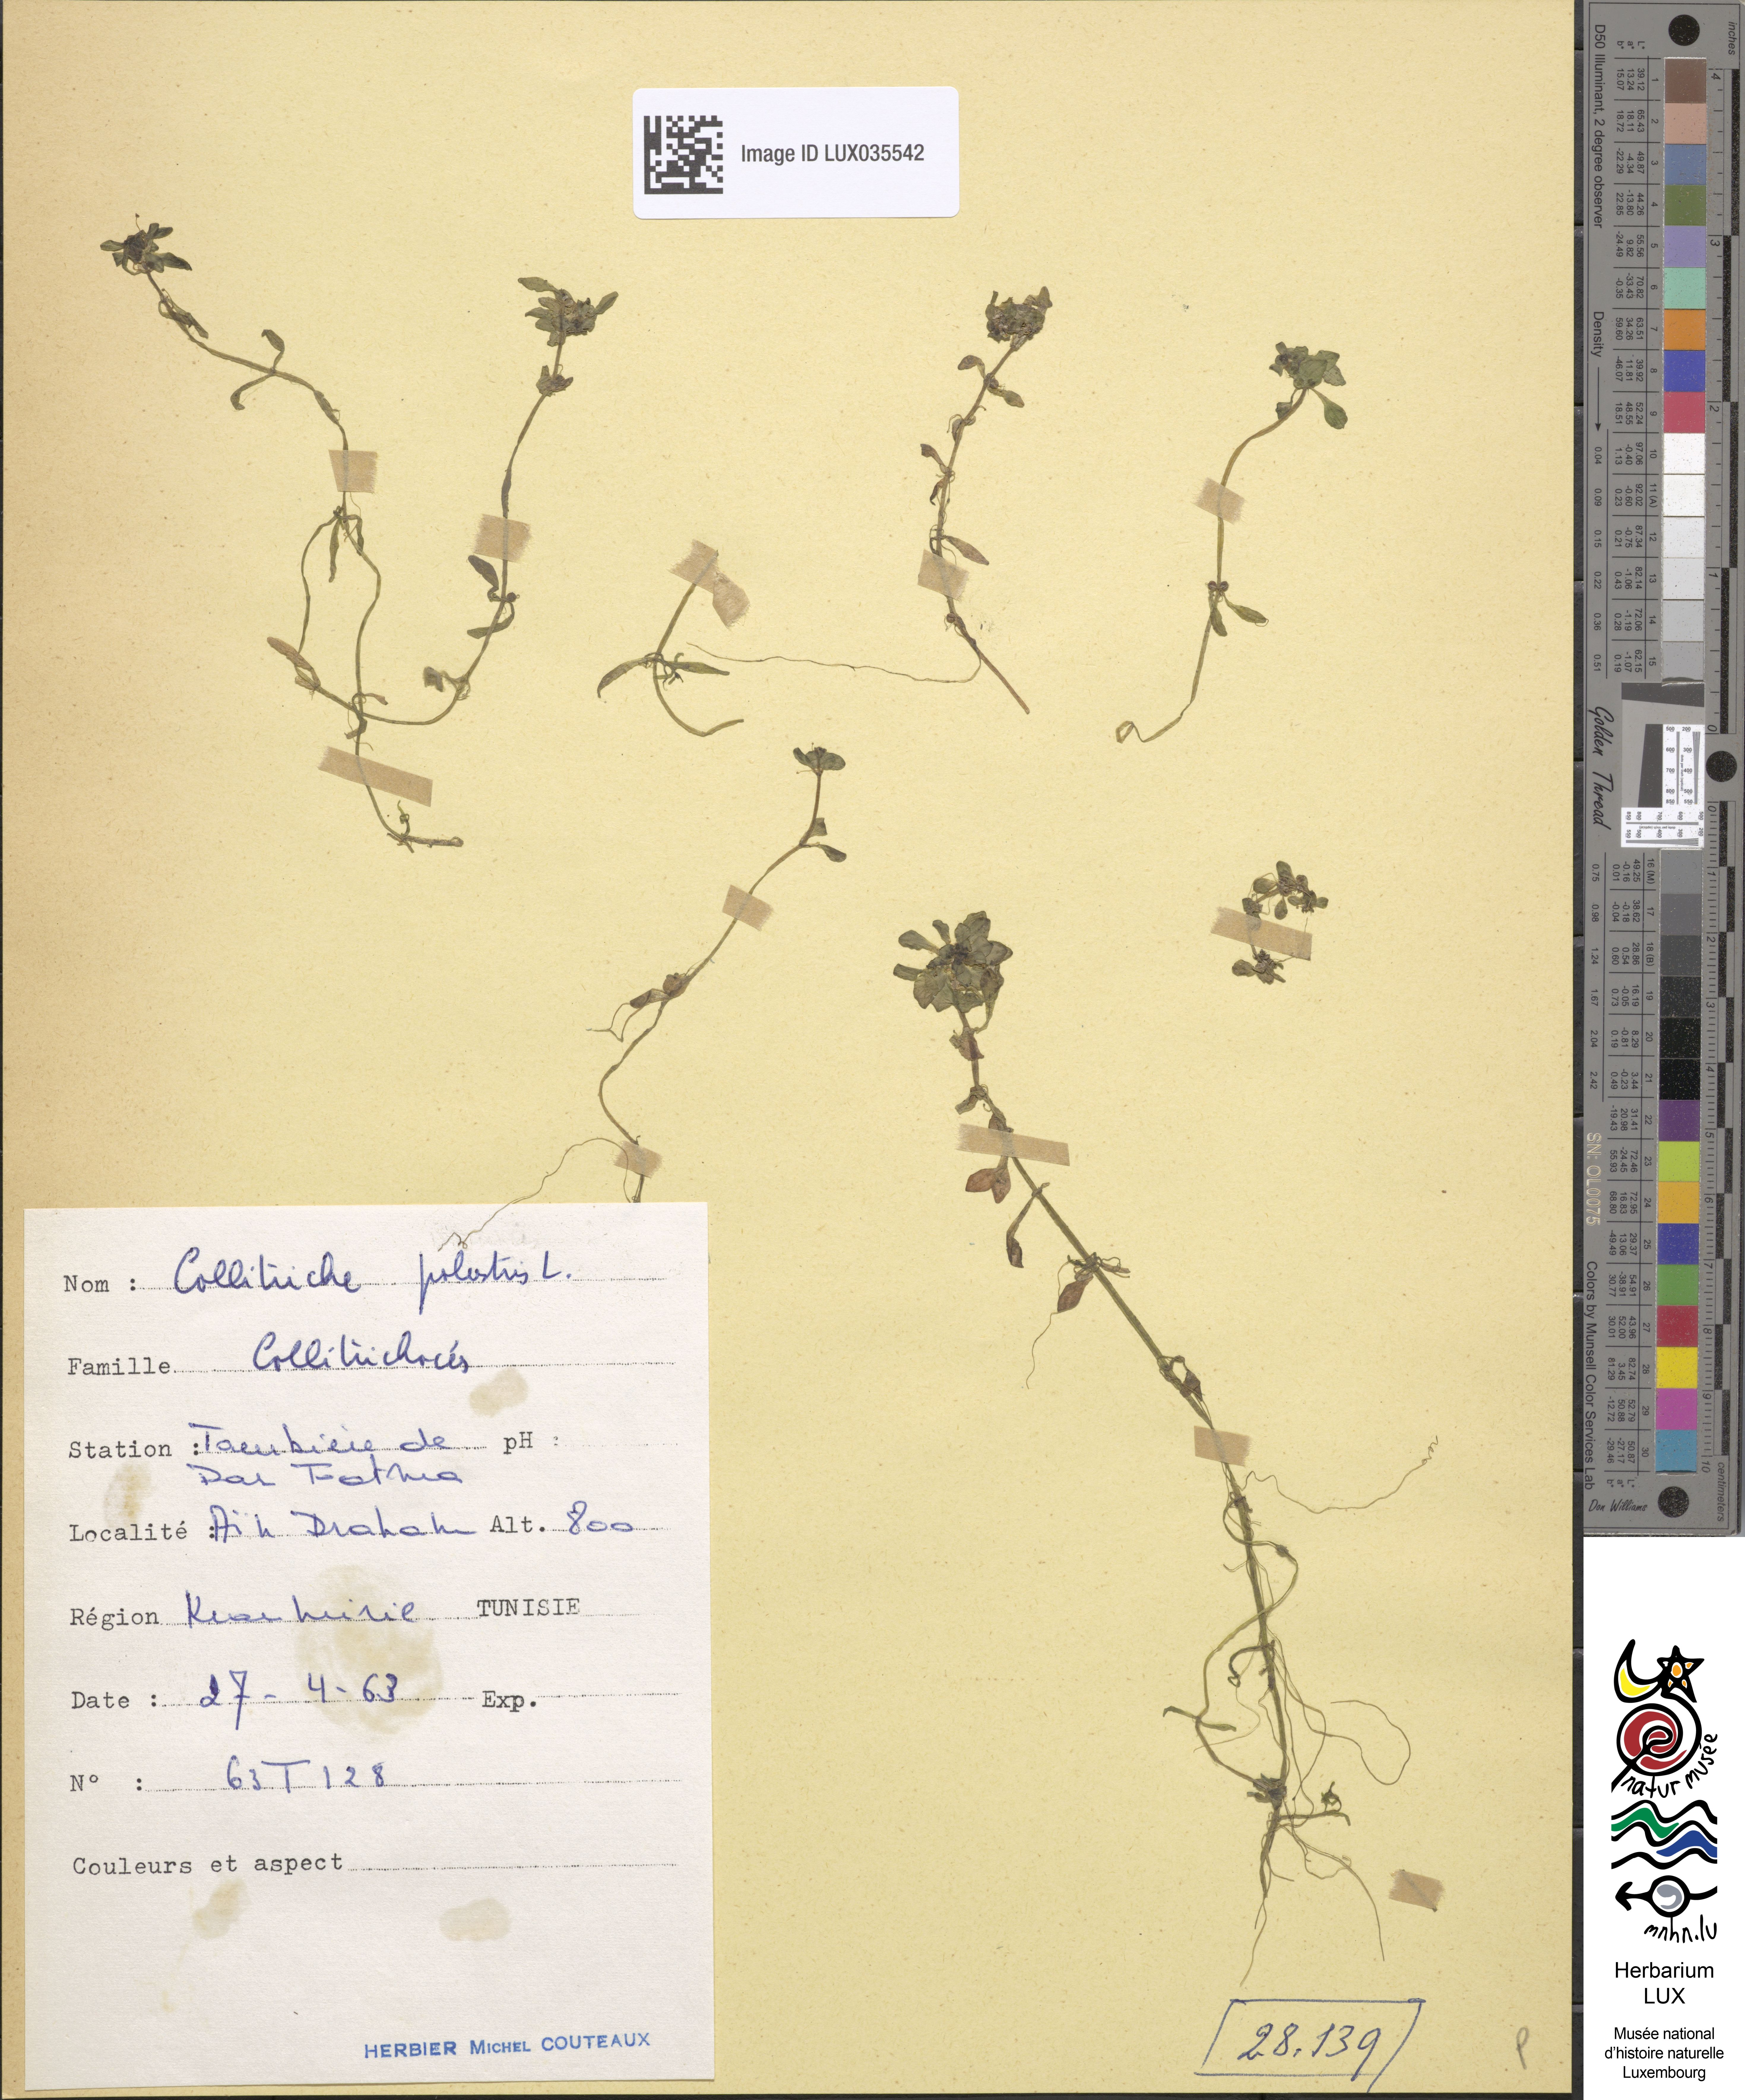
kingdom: Plantae
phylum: Tracheophyta
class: Magnoliopsida
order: Lamiales
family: Plantaginaceae
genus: Callitriche
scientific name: Callitriche palustris
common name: Spring water-starwort
